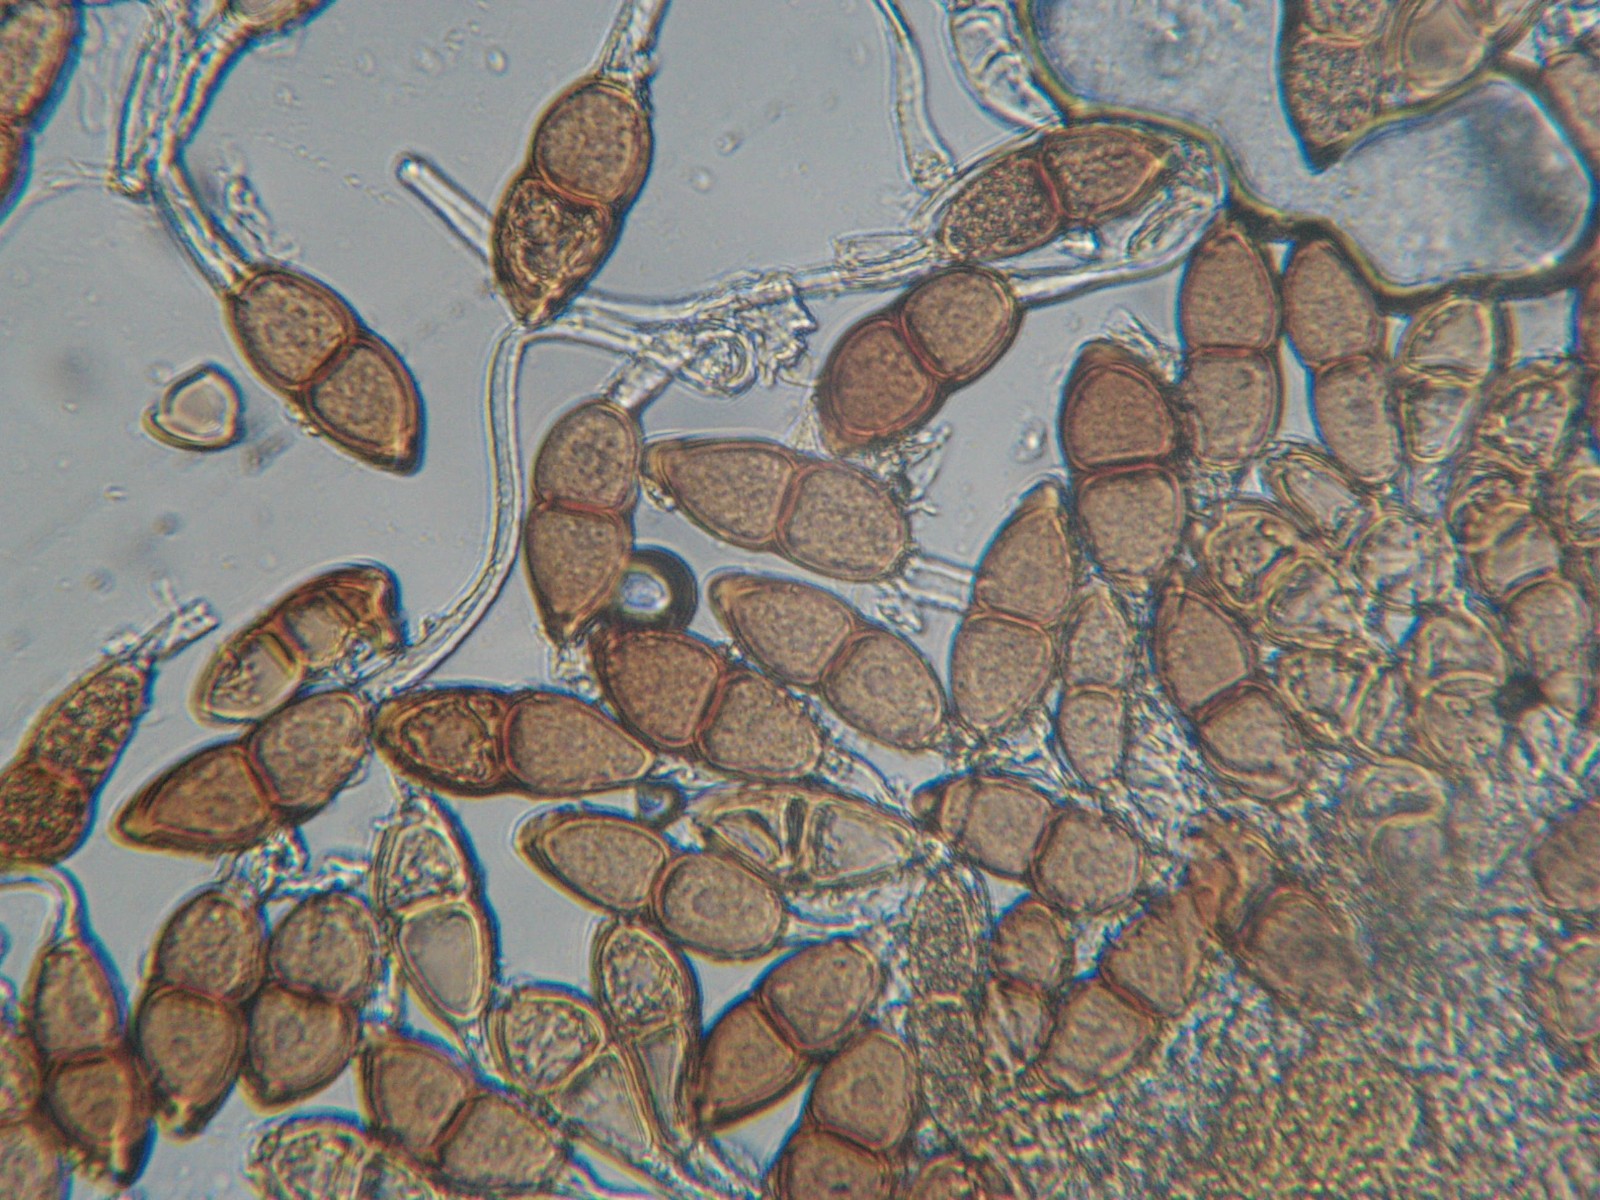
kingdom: Fungi
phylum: Basidiomycota
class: Pucciniomycetes
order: Pucciniales
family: Pucciniaceae
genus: Puccinia
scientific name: Puccinia malvacearum
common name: stokrose-tvecellerust
